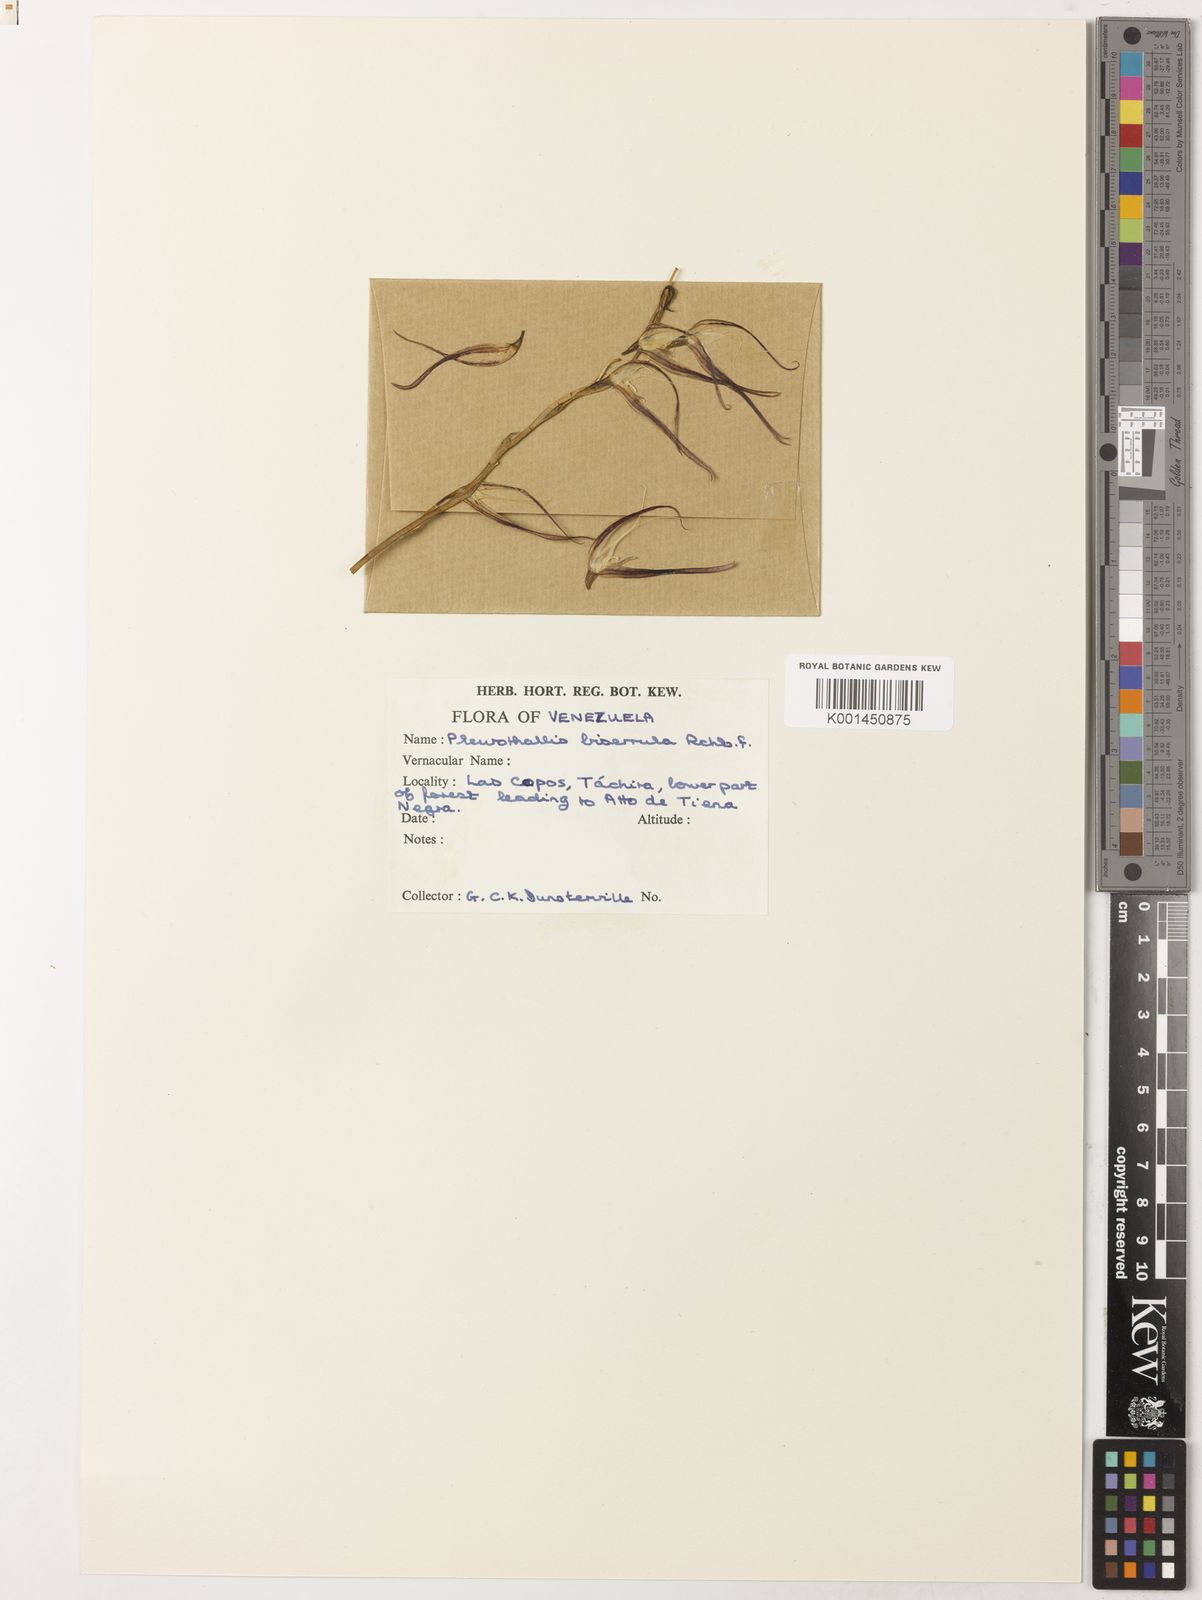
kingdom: Plantae
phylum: Tracheophyta
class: Liliopsida
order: Asparagales
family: Orchidaceae
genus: Pleurothallis
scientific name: Pleurothallis glossopogon
